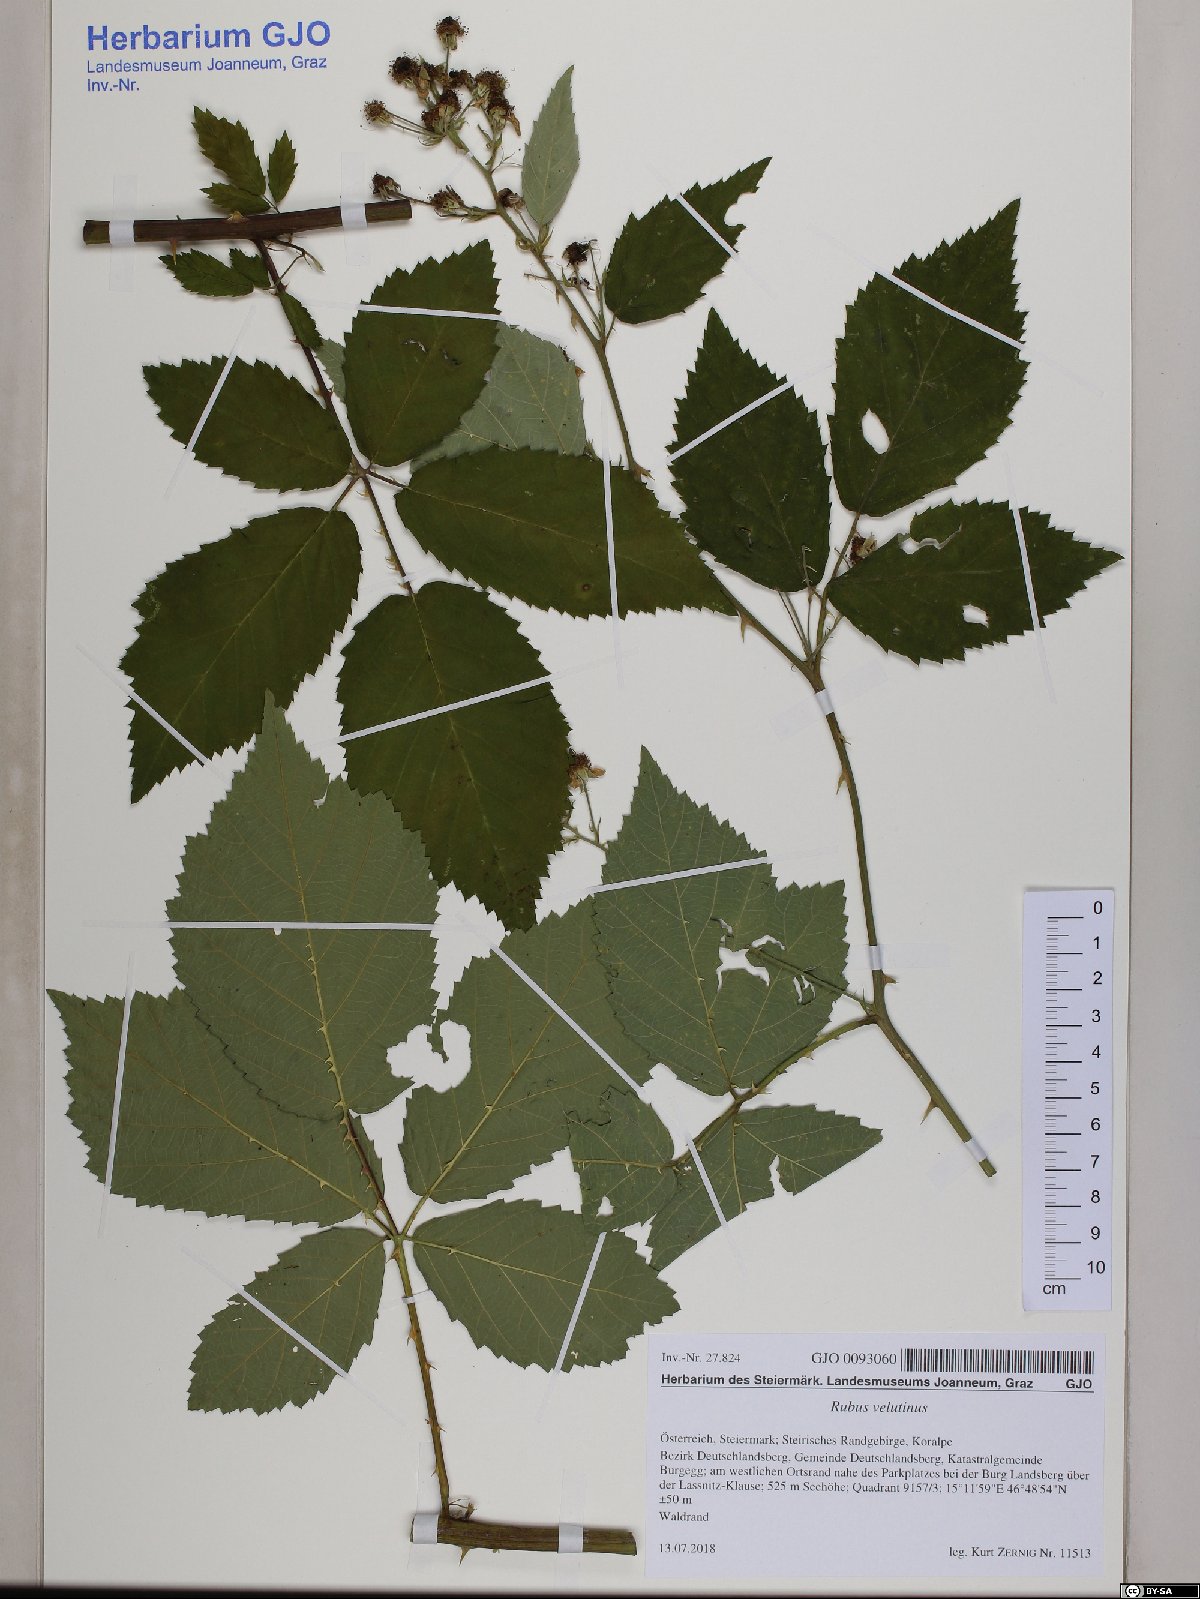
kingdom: Plantae
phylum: Tracheophyta
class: Magnoliopsida
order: Rosales
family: Rosaceae
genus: Rubus
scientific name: Rubus velutinus
